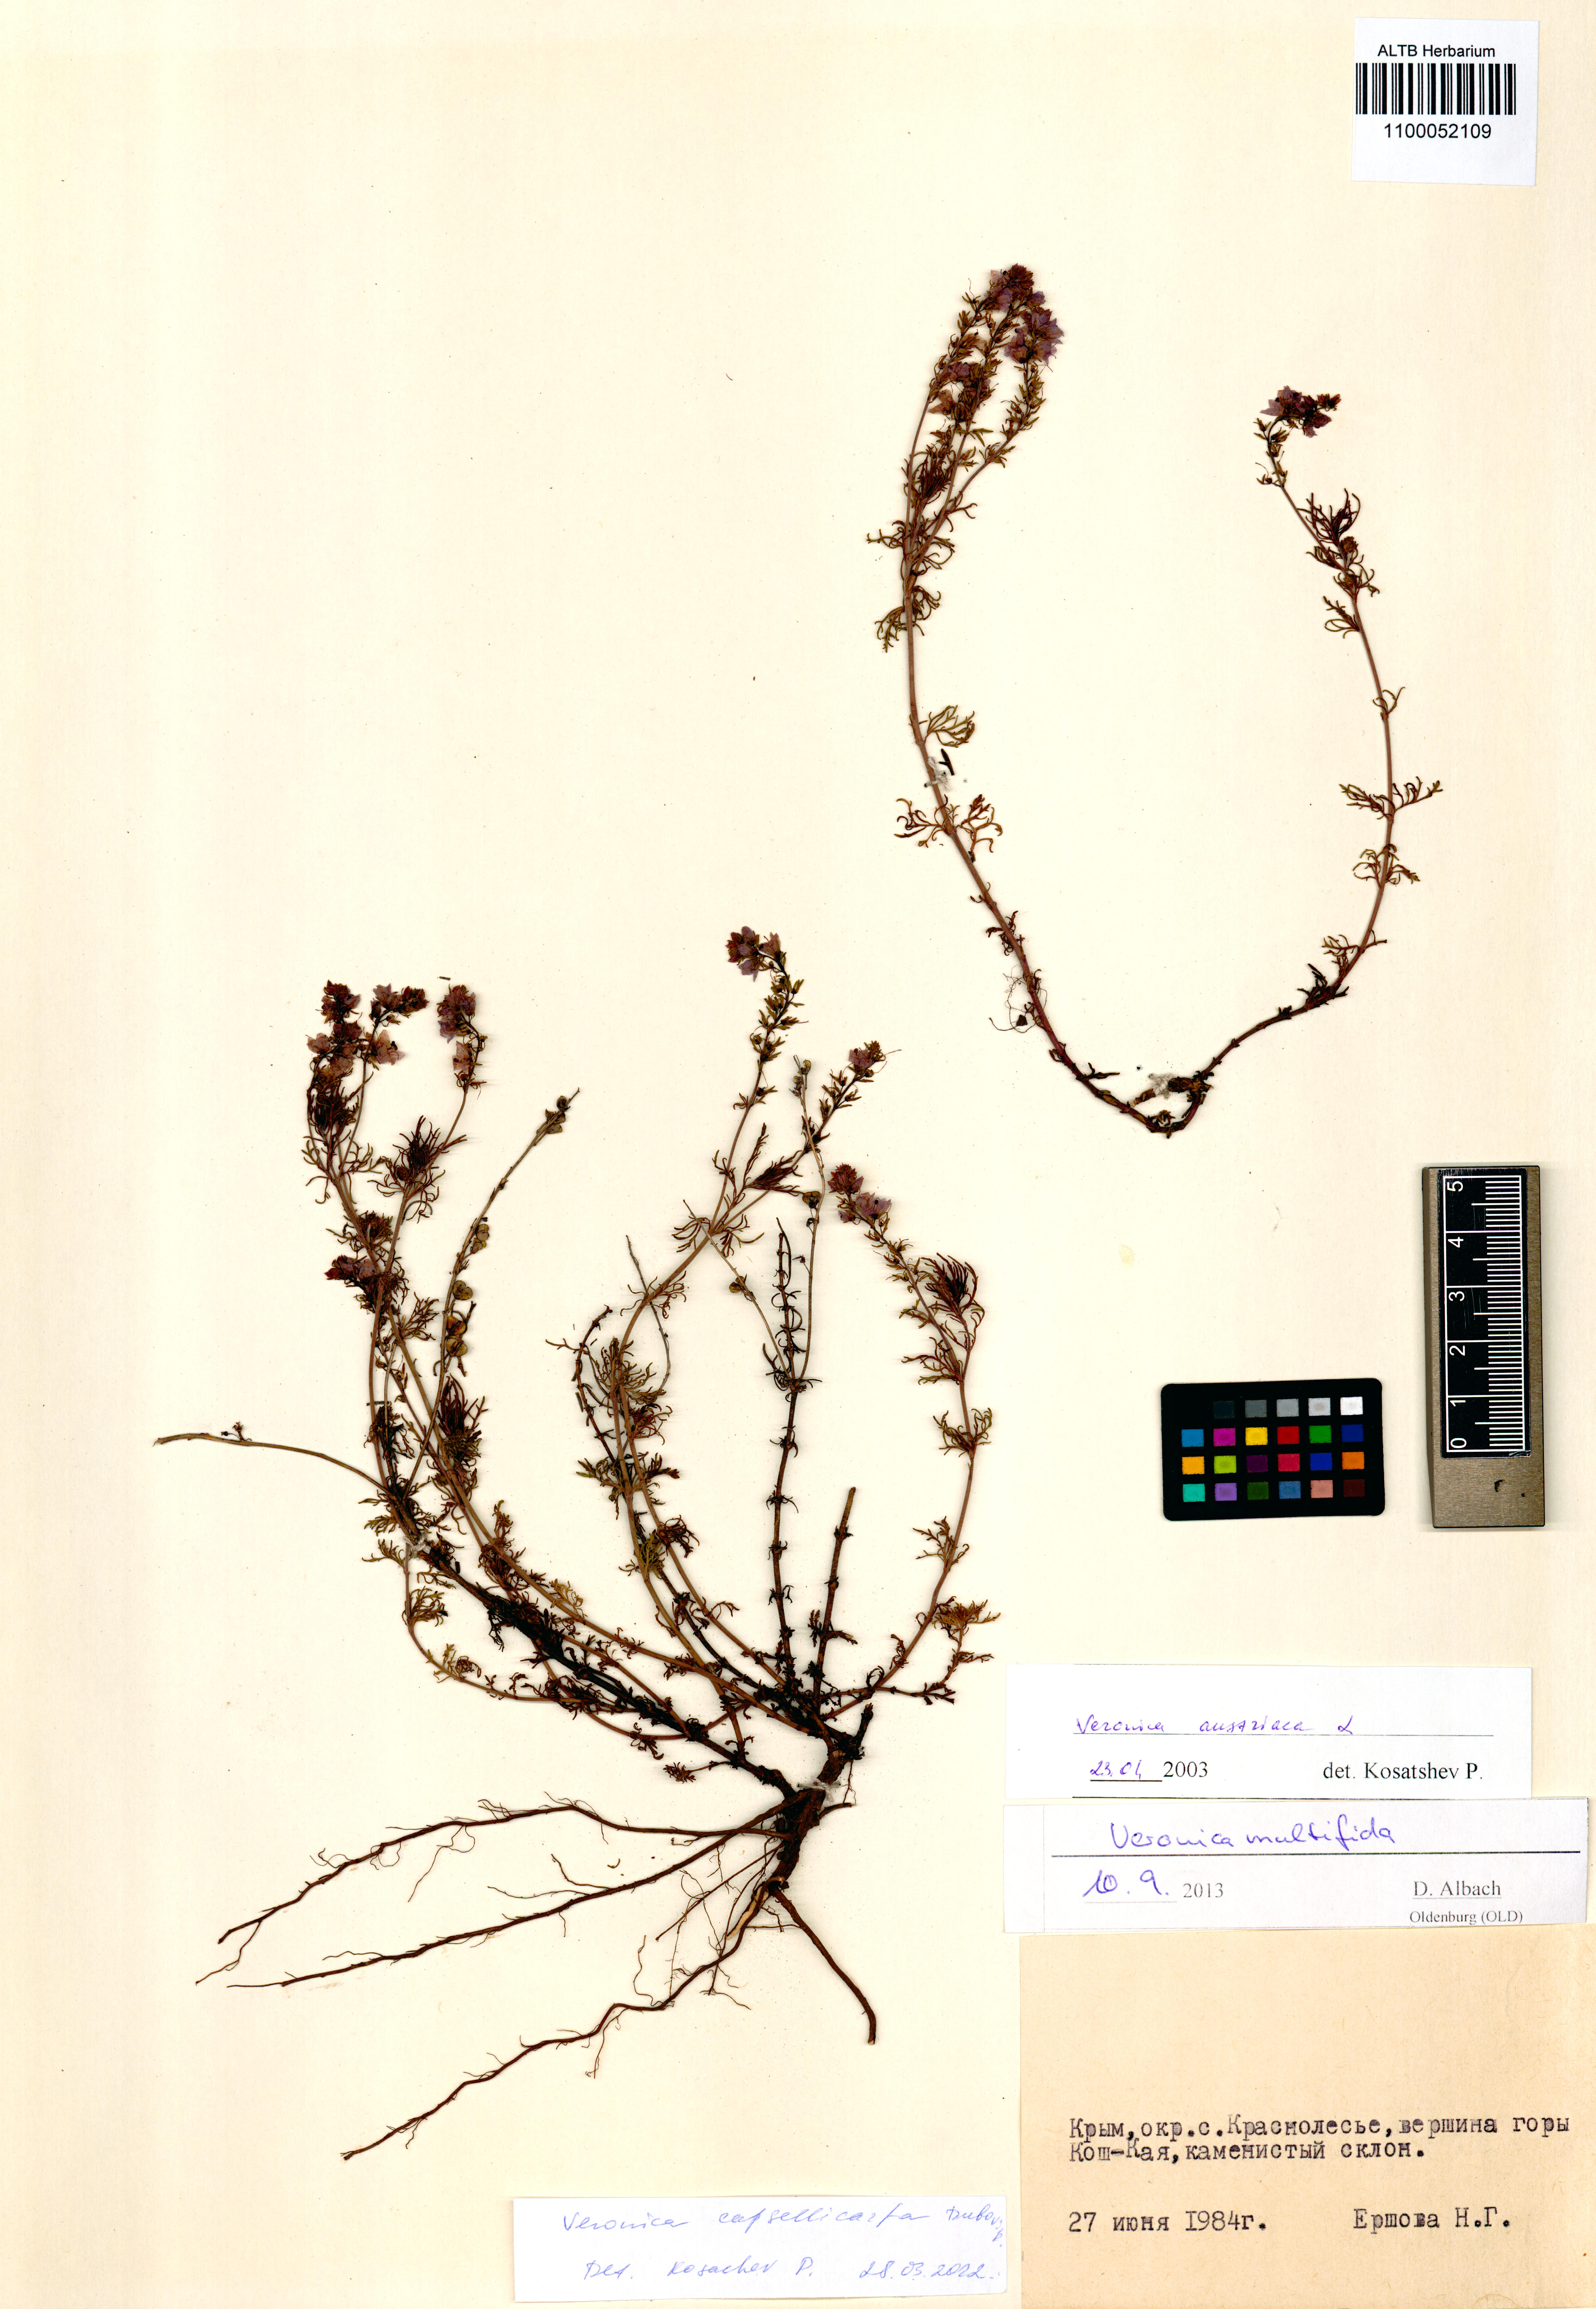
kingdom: Plantae
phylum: Tracheophyta
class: Magnoliopsida
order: Lamiales
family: Plantaginaceae
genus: Veronica
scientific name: Veronica capsellicarpa
